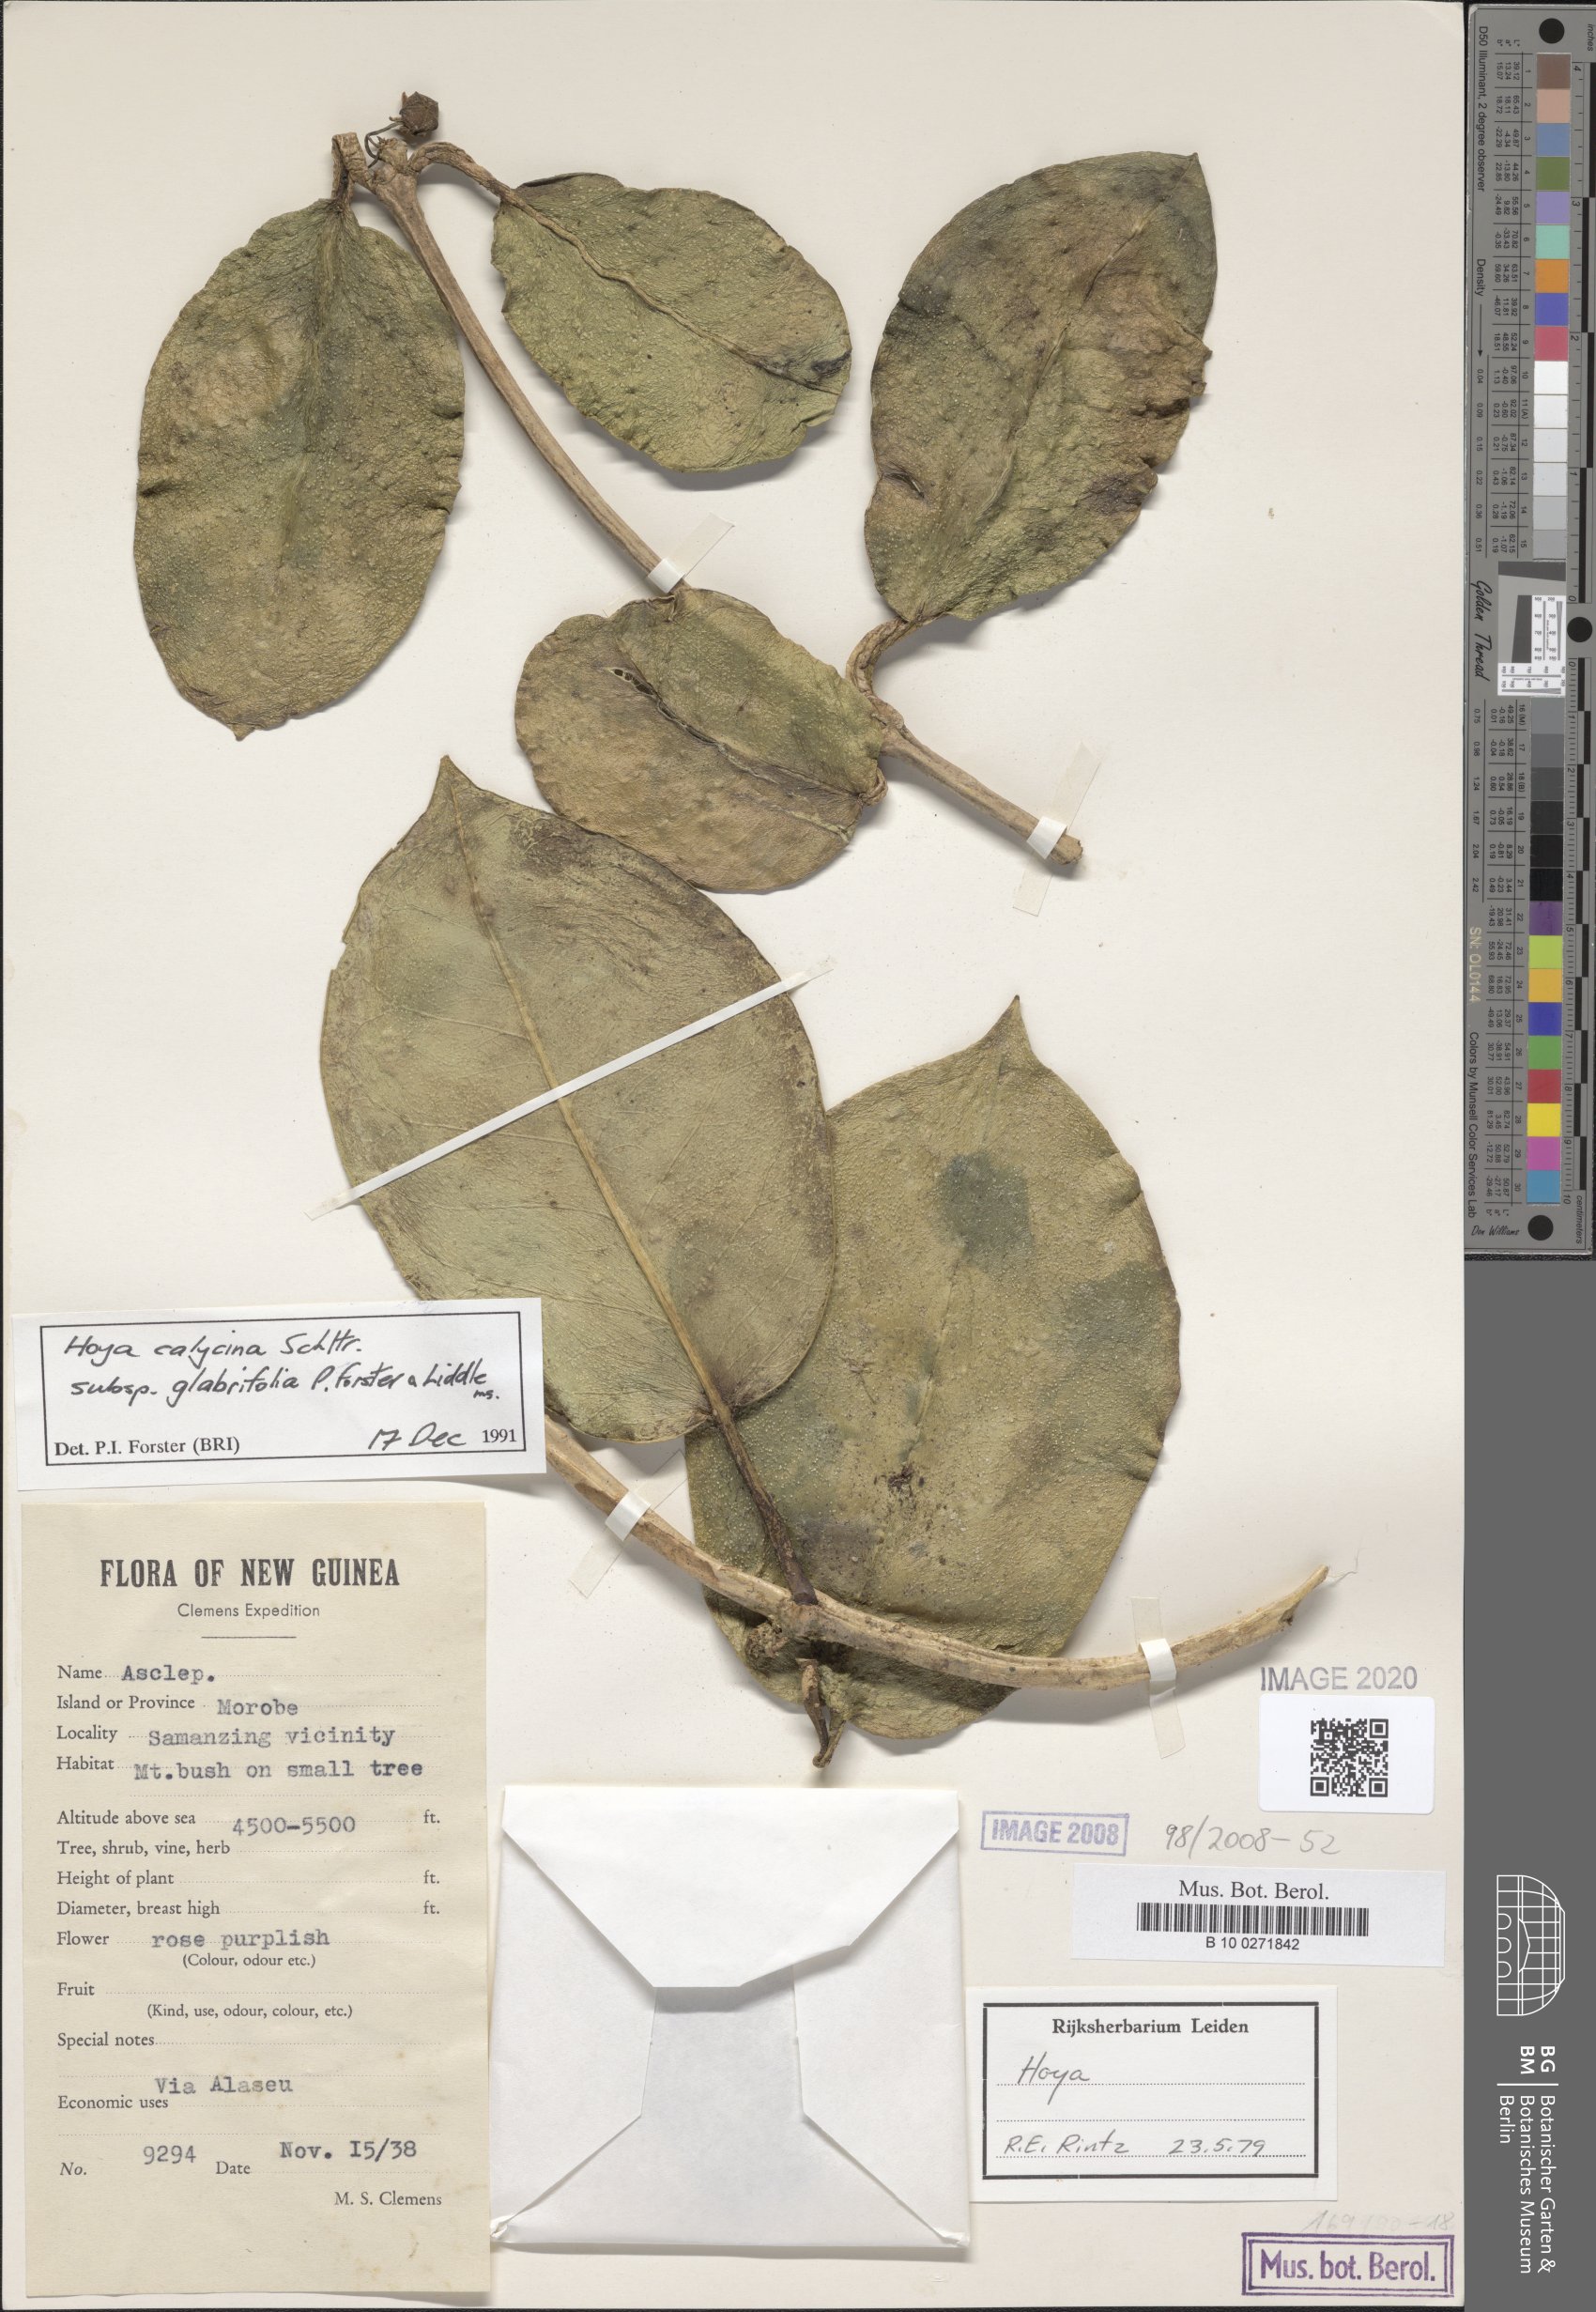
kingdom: Plantae
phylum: Tracheophyta
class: Magnoliopsida
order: Gentianales
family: Apocynaceae
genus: Hoya
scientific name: Hoya calycina
